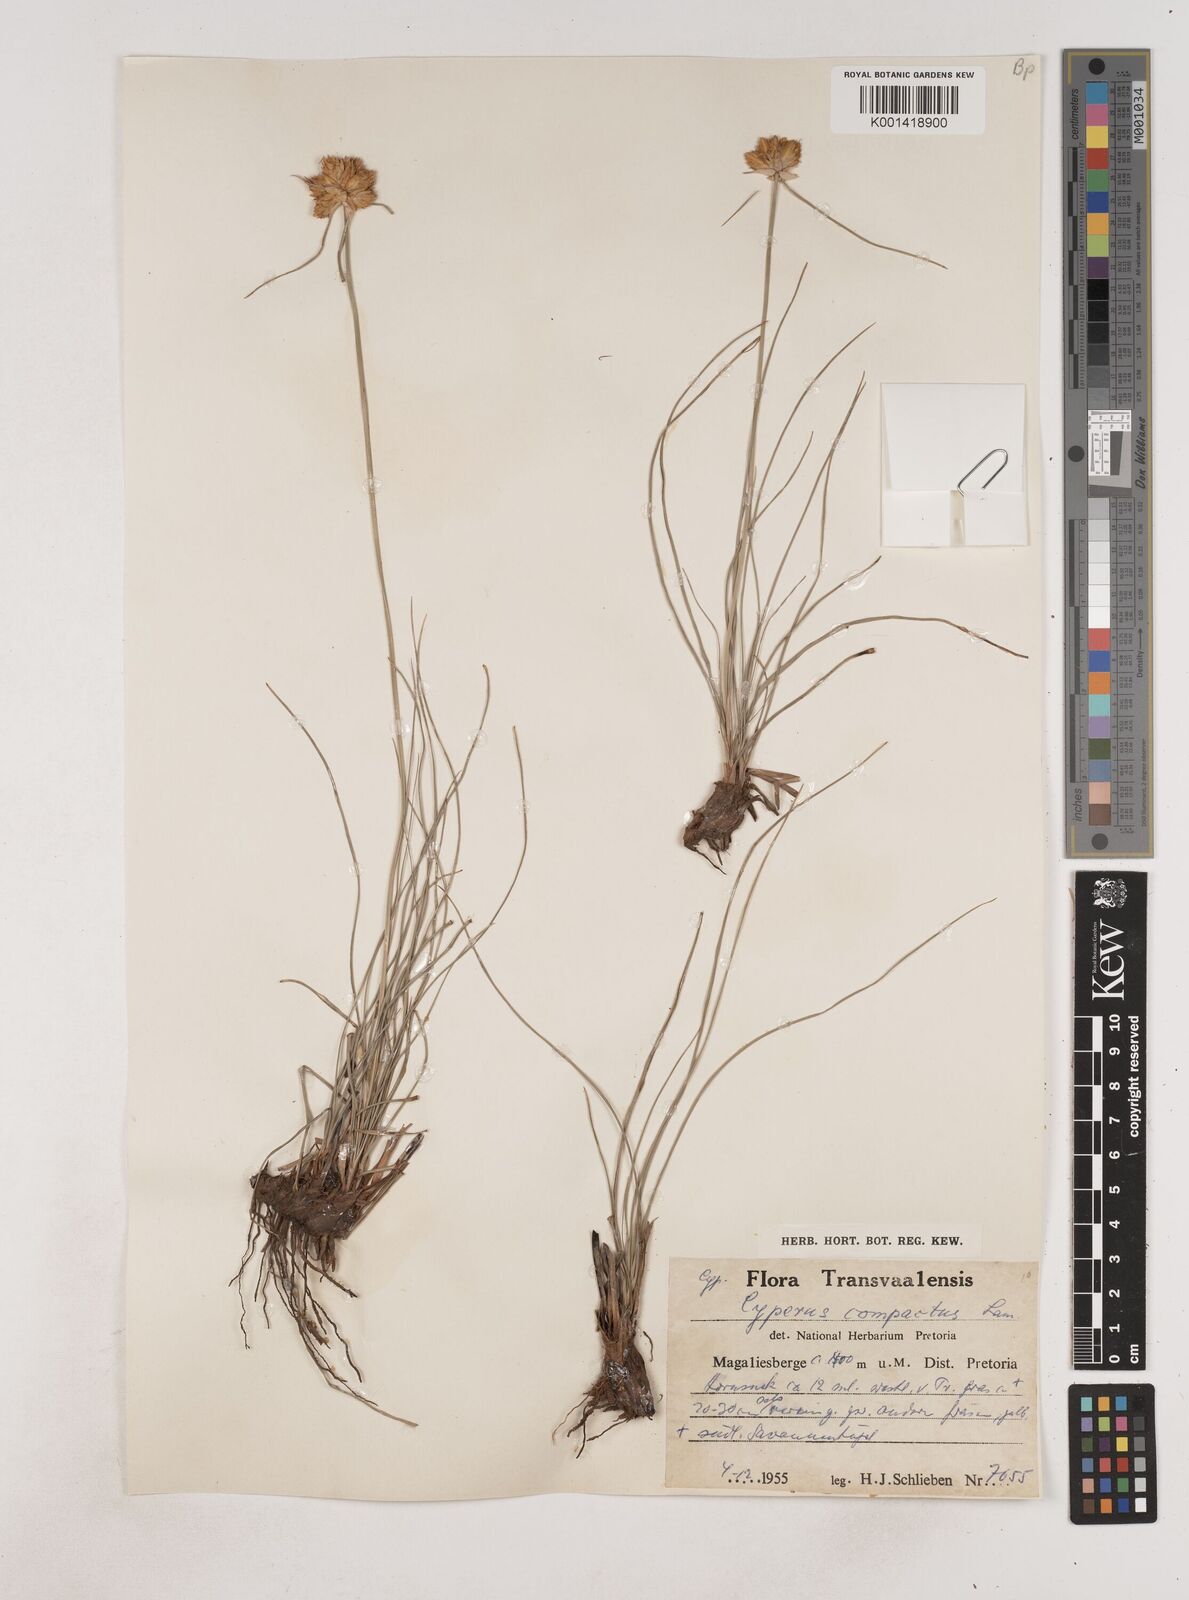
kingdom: Plantae
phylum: Tracheophyta
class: Liliopsida
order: Poales
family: Cyperaceae
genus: Cyperus
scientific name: Cyperus sphaerocephalus
